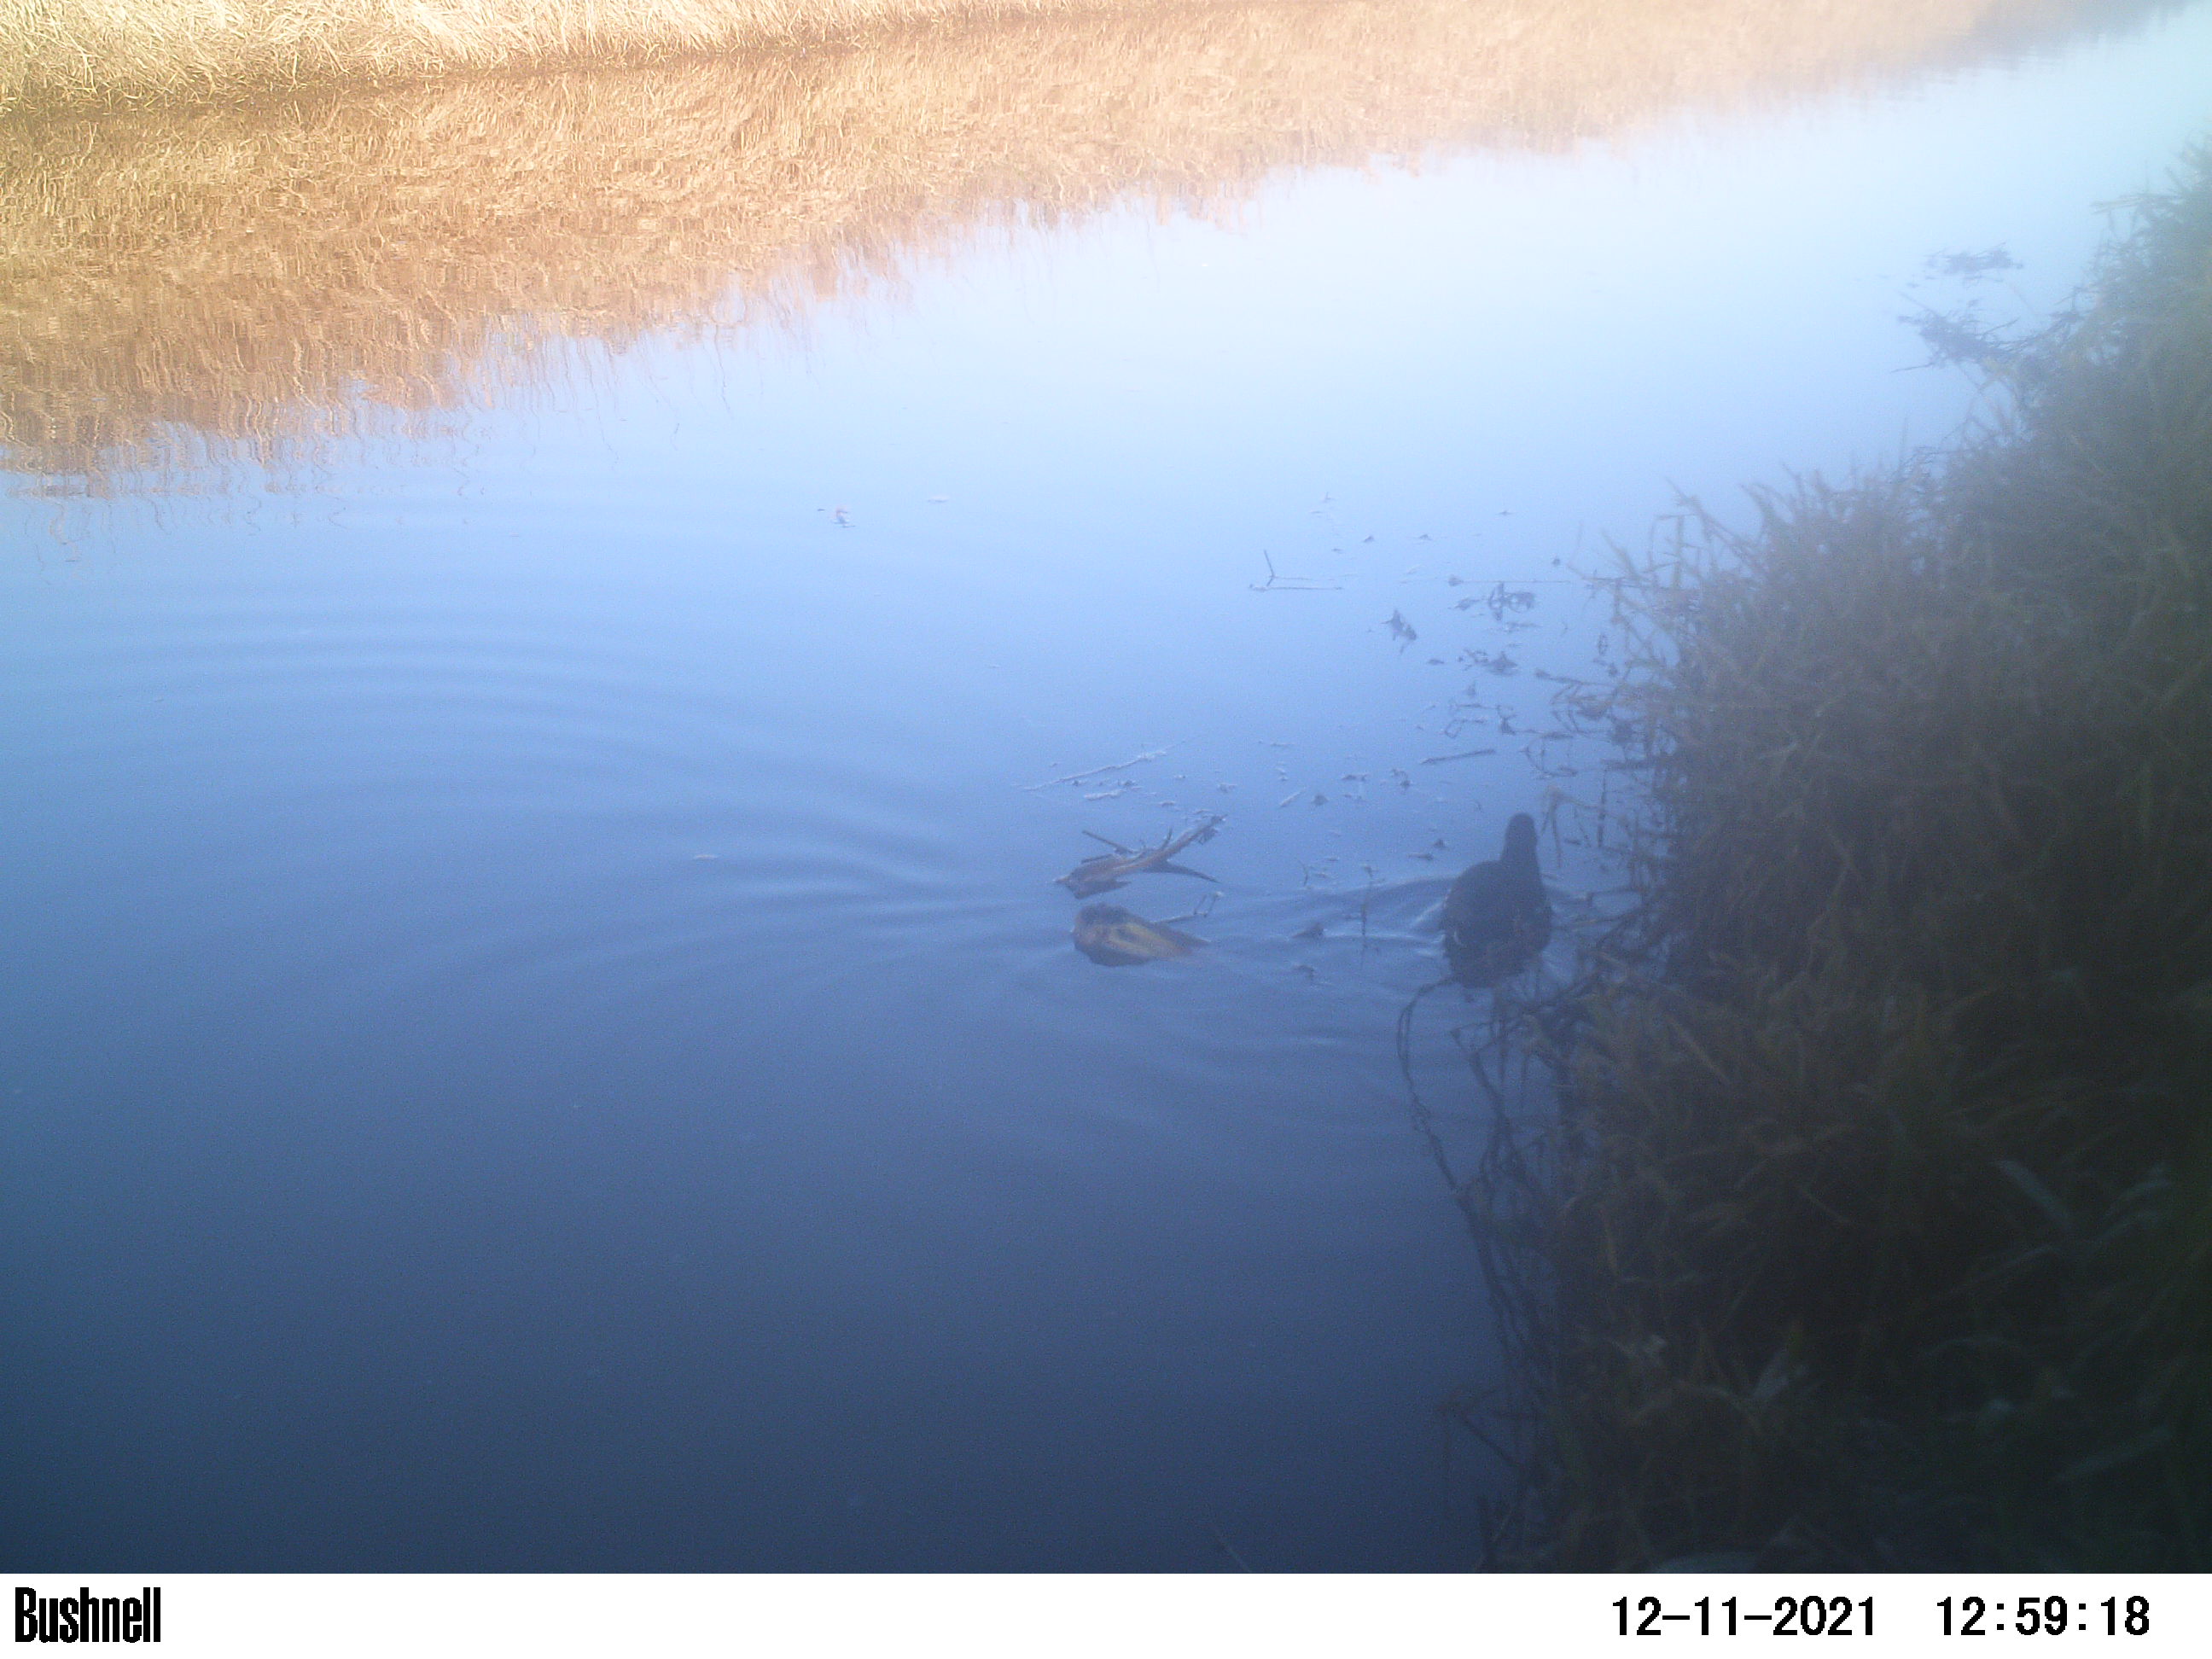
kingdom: Animalia
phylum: Chordata
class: Aves
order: Gruiformes
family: Rallidae
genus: Gallinula
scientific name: Gallinula chloropus
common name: Common moorhen
